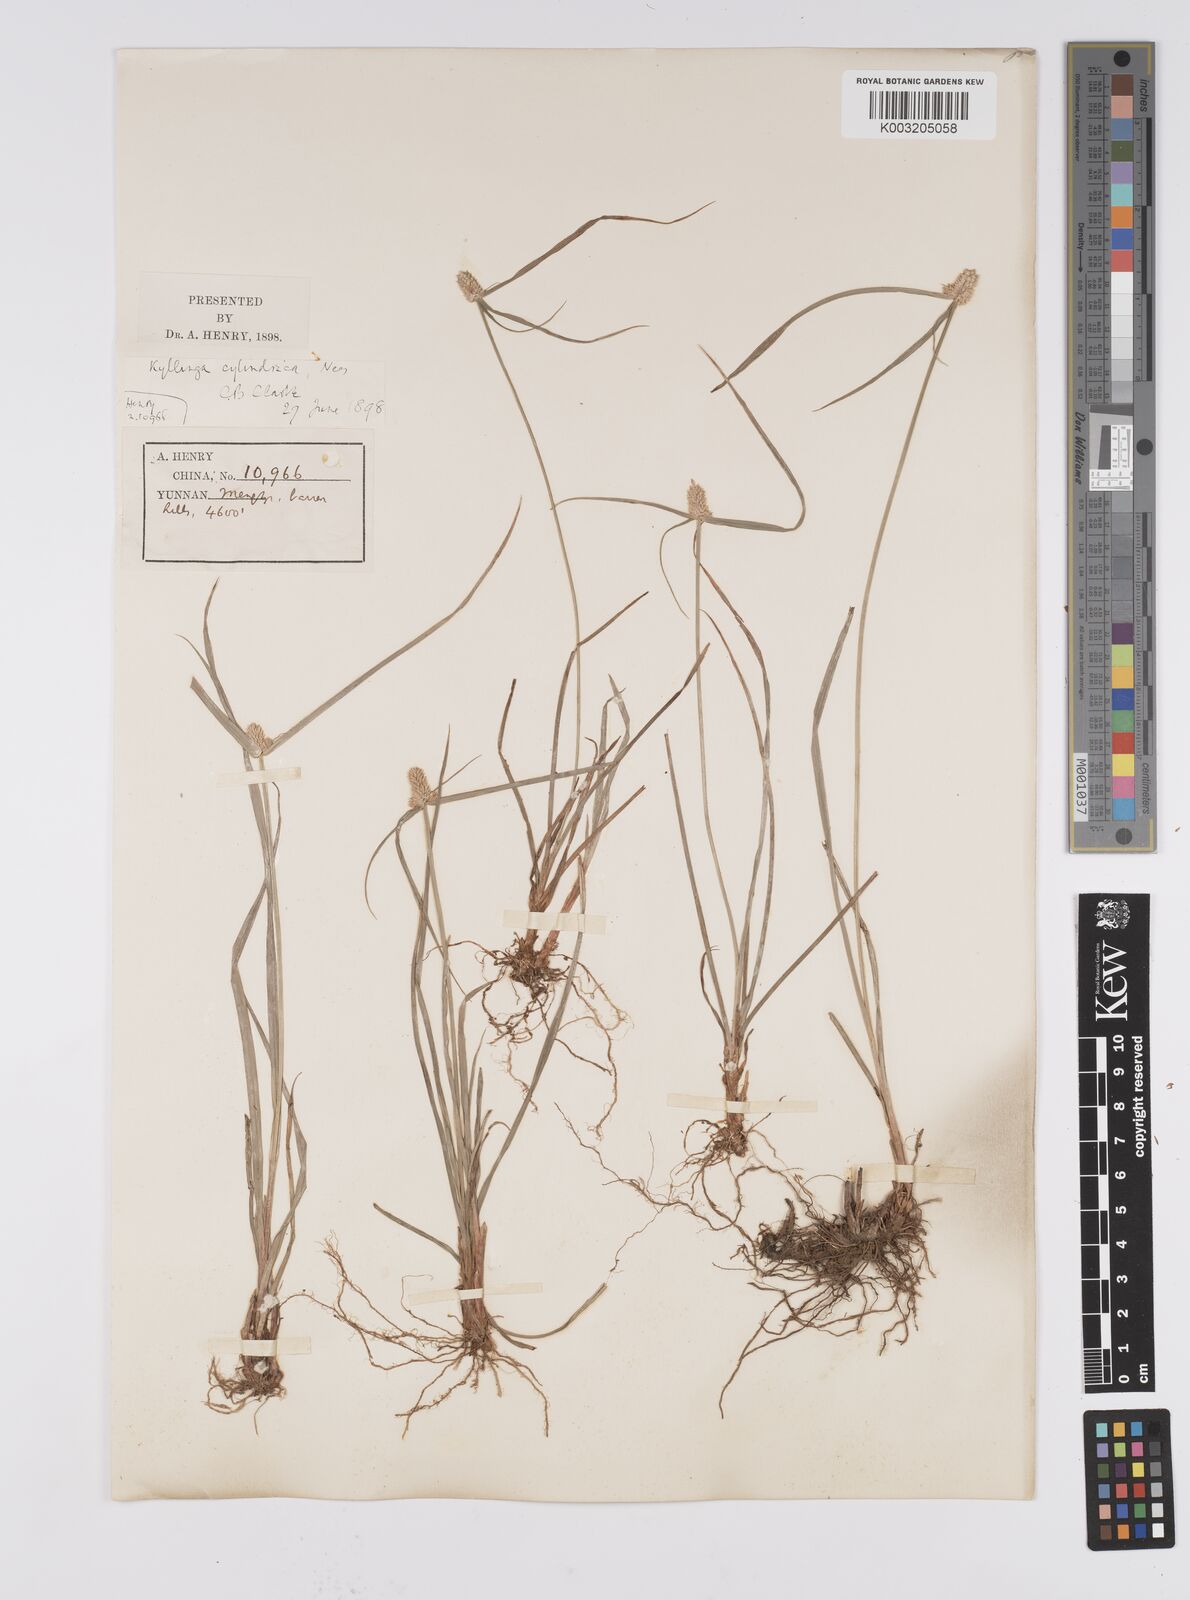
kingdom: Plantae
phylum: Tracheophyta
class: Liliopsida
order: Poales
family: Cyperaceae
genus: Cyperus
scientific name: Cyperus
